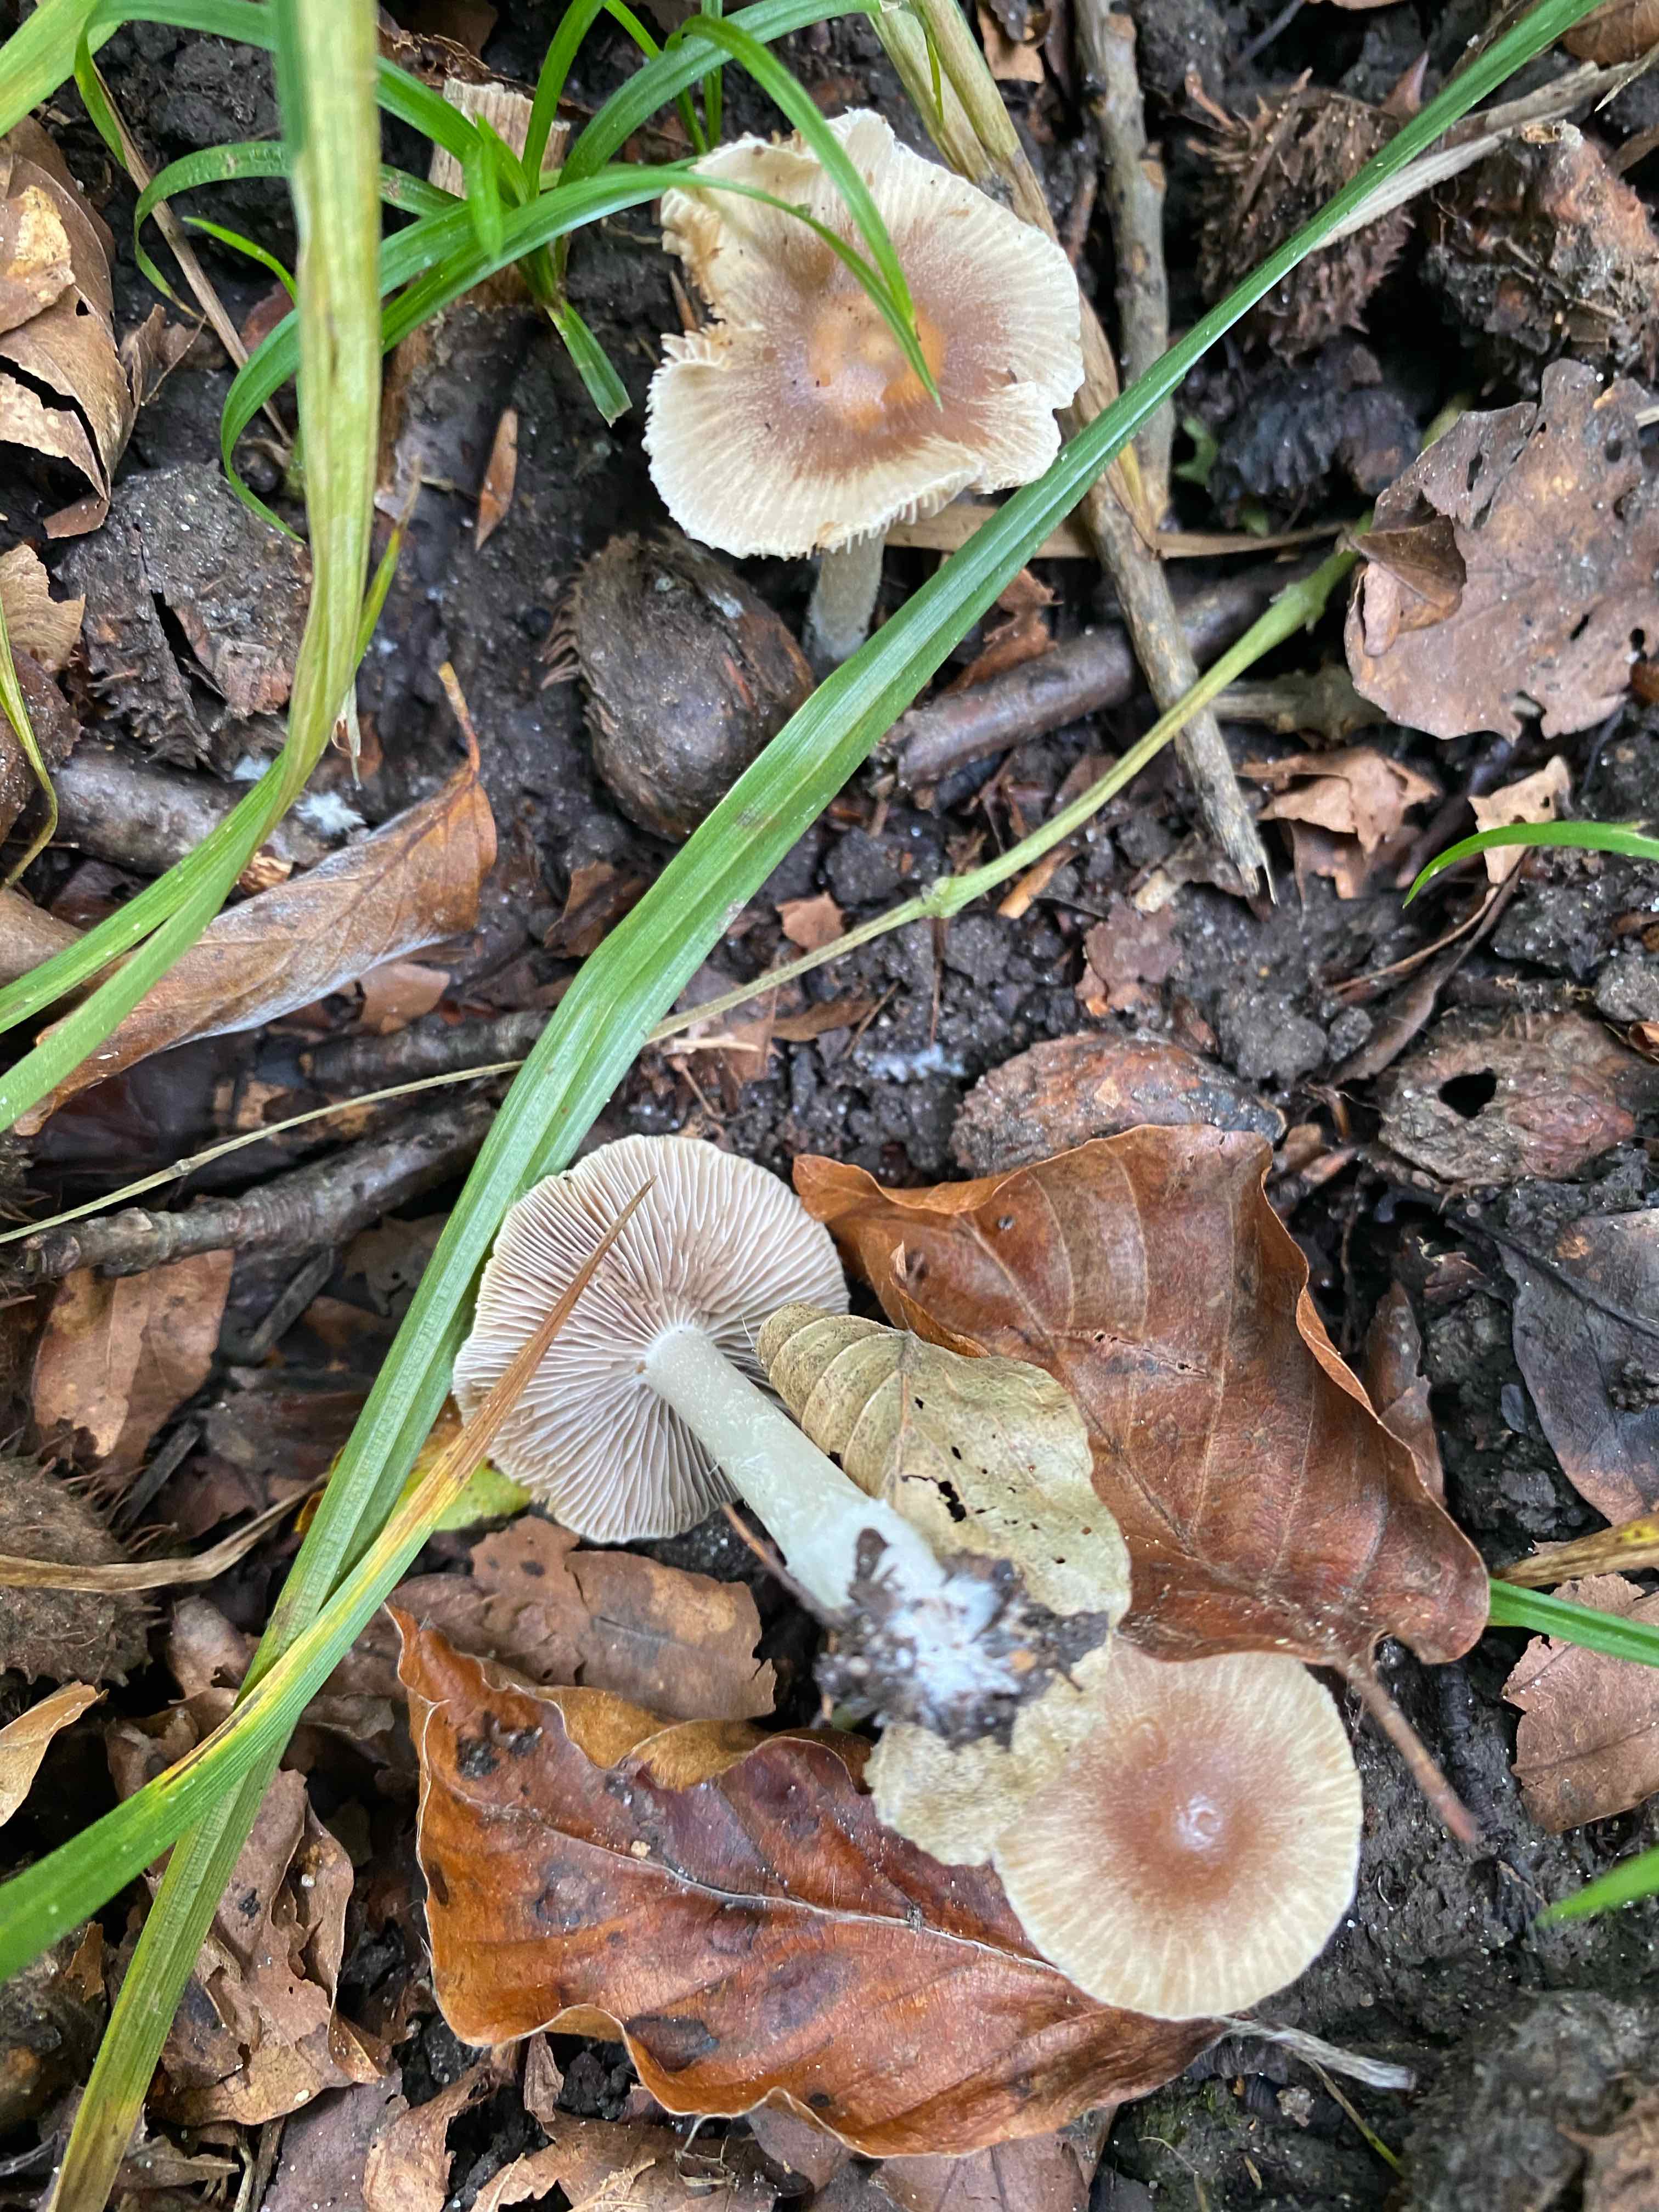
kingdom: Fungi
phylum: Basidiomycota
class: Agaricomycetes
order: Agaricales
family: Inocybaceae
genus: Inocybe
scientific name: Inocybe
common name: trævlhat
